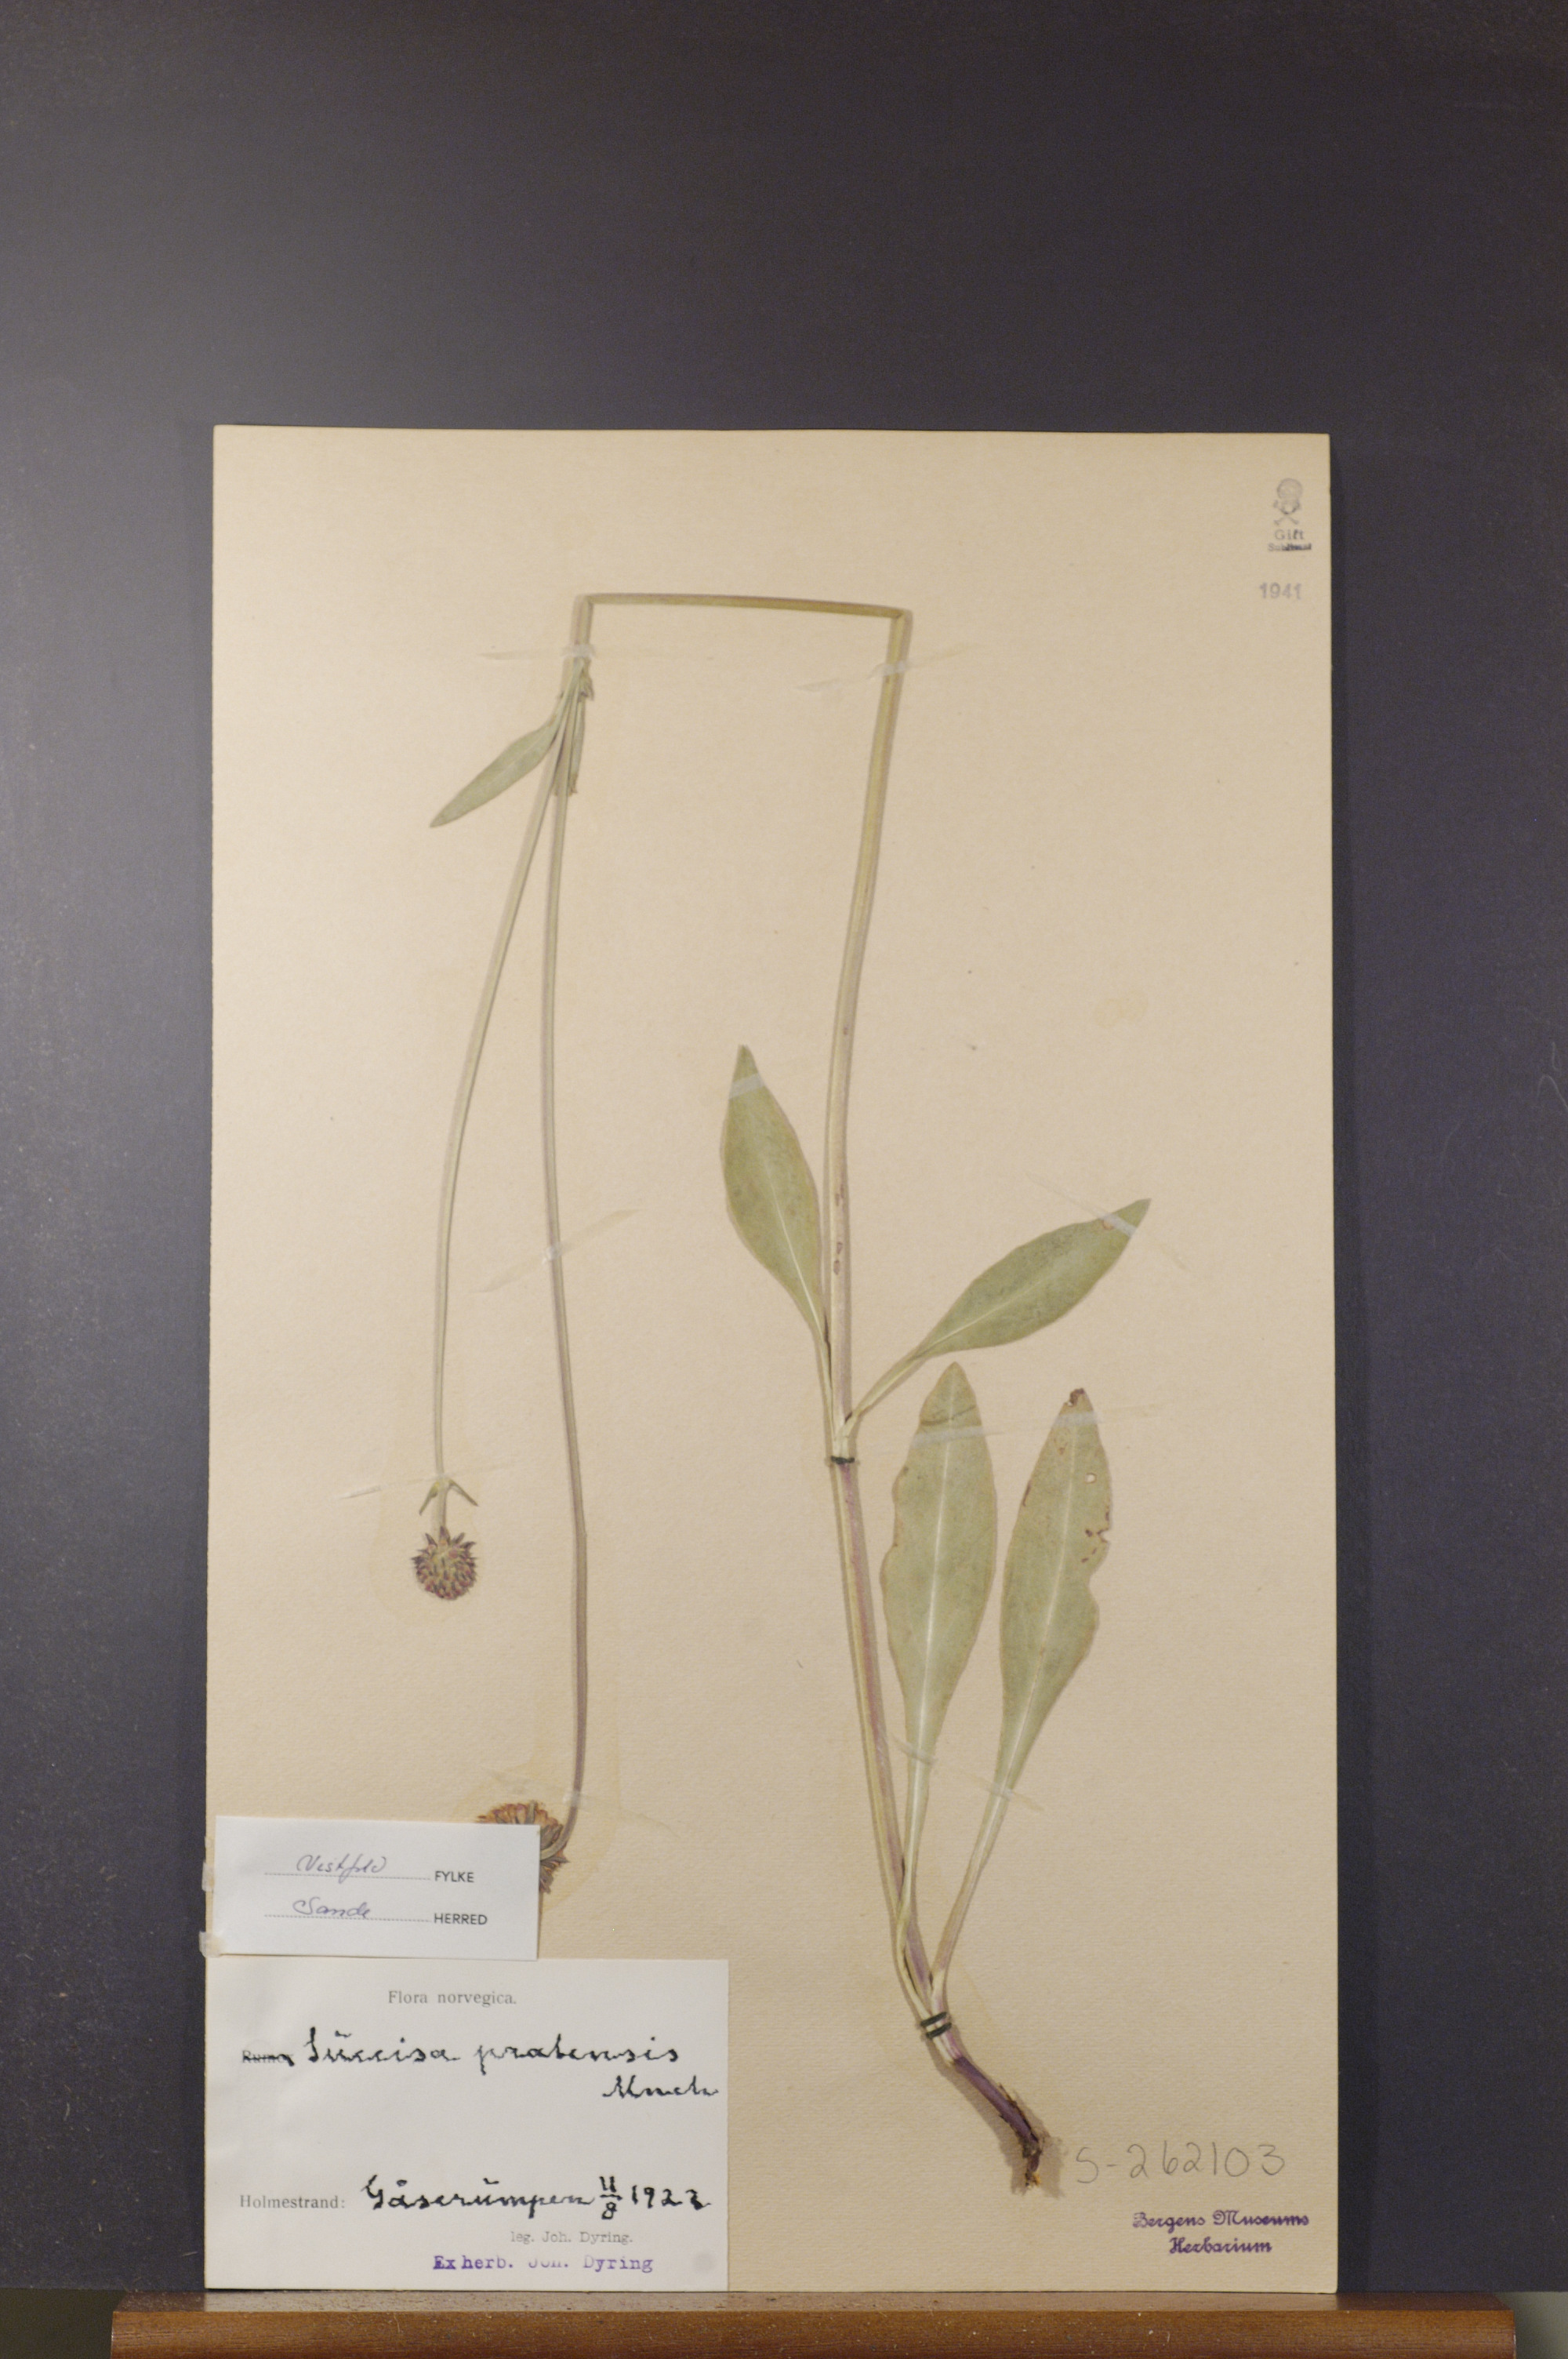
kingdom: Plantae
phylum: Tracheophyta
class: Magnoliopsida
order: Dipsacales
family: Caprifoliaceae
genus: Succisa
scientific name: Succisa pratensis
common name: Devil's-bit
